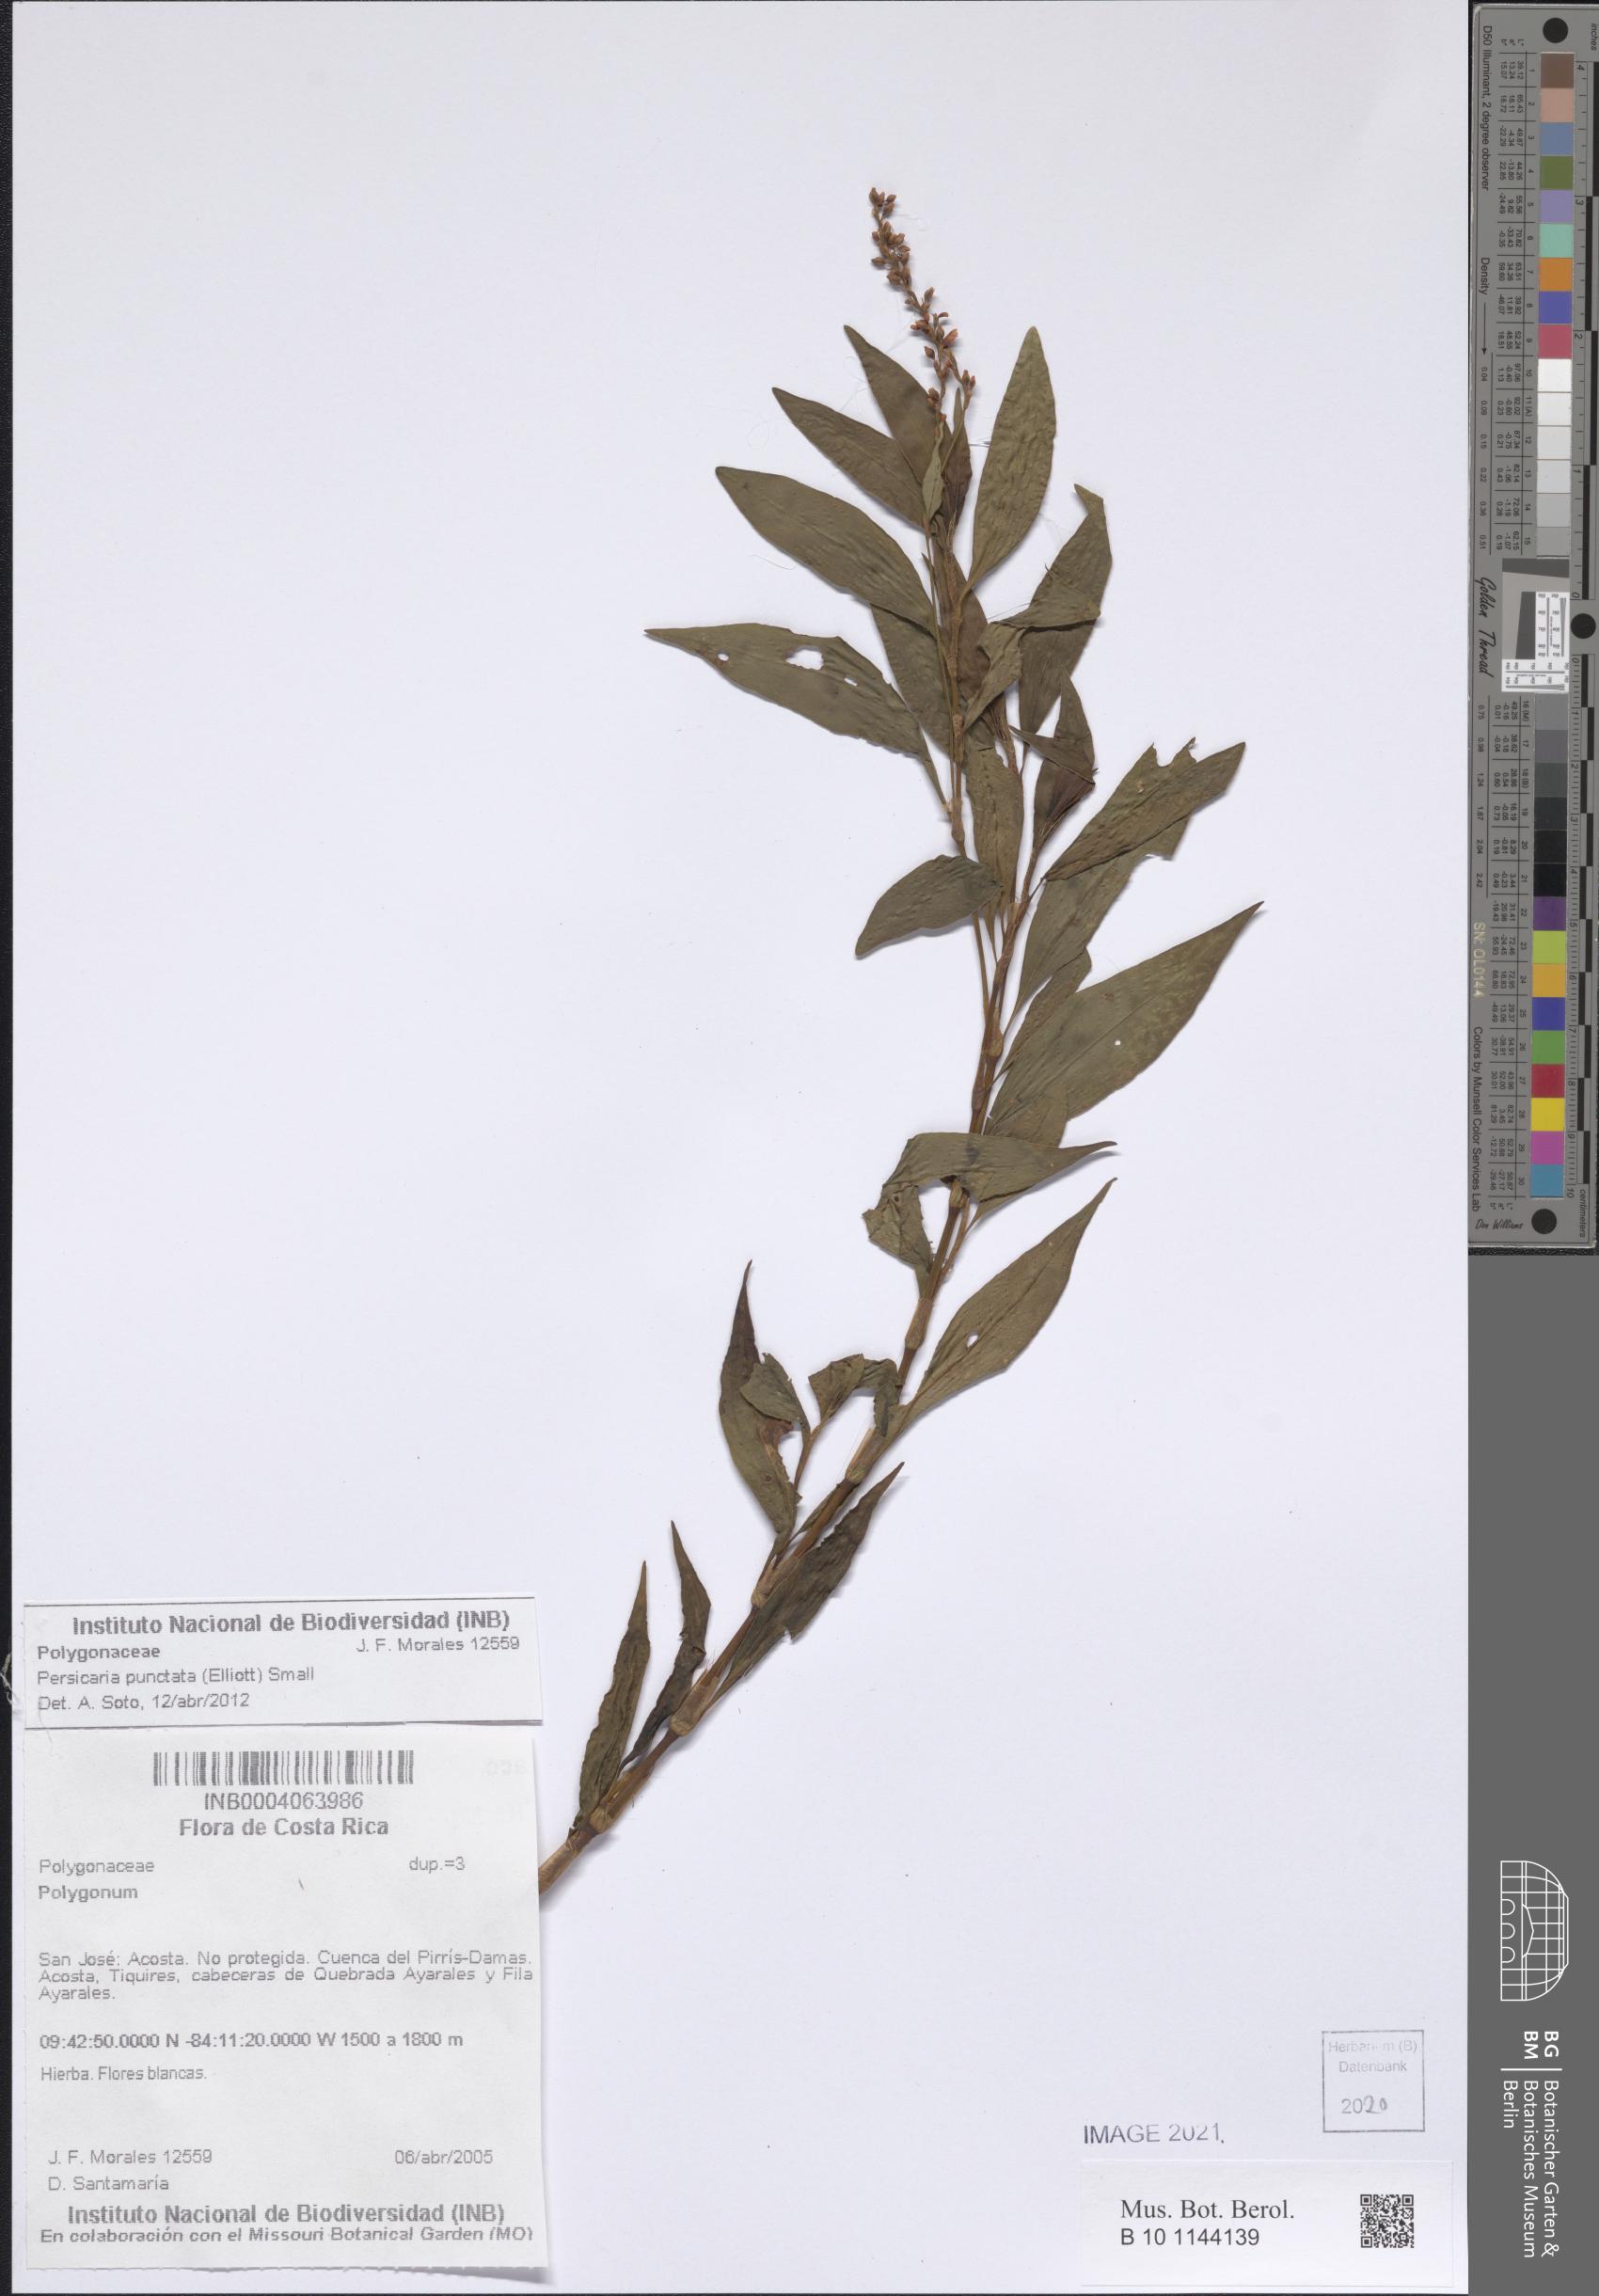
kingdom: Plantae
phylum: Tracheophyta
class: Magnoliopsida
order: Caryophyllales
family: Polygonaceae
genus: Persicaria
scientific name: Persicaria punctata
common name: Dotted smartweed
